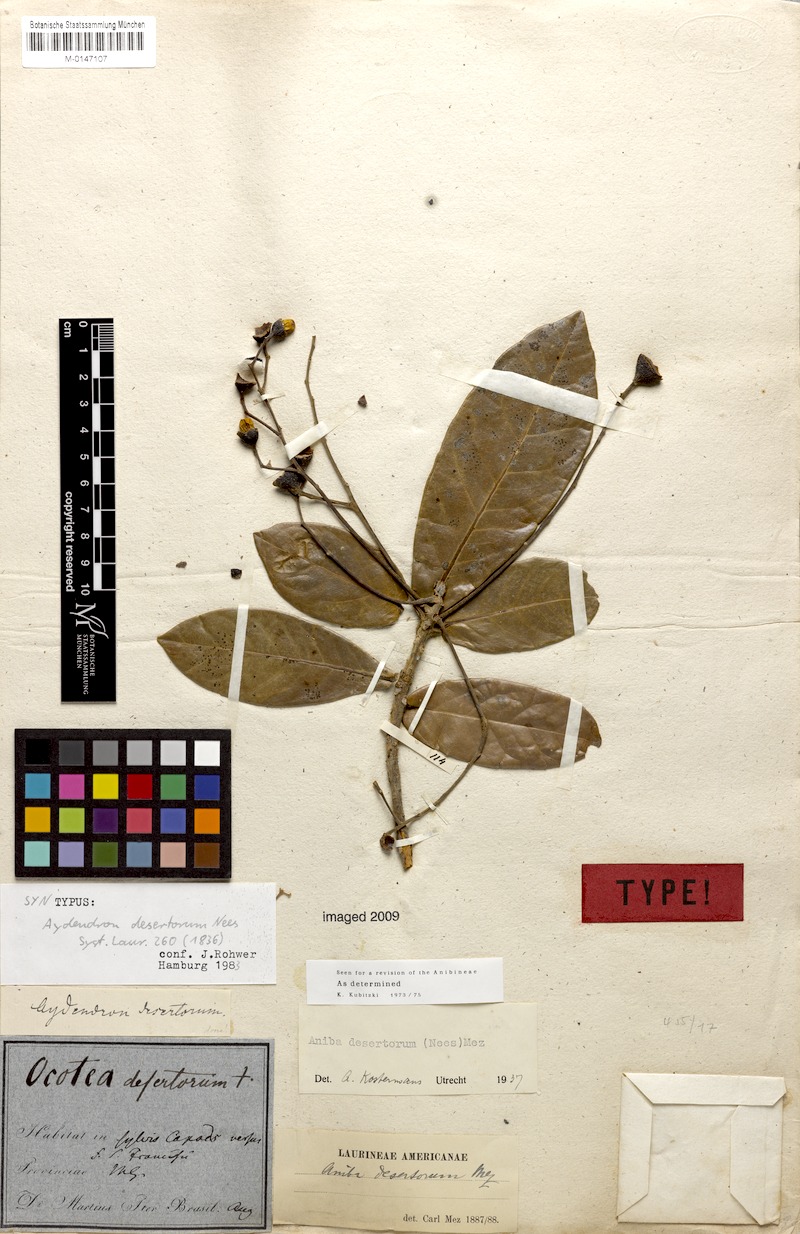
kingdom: Plantae
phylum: Tracheophyta
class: Magnoliopsida
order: Laurales
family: Lauraceae
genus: Aniba
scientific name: Aniba desertorum
